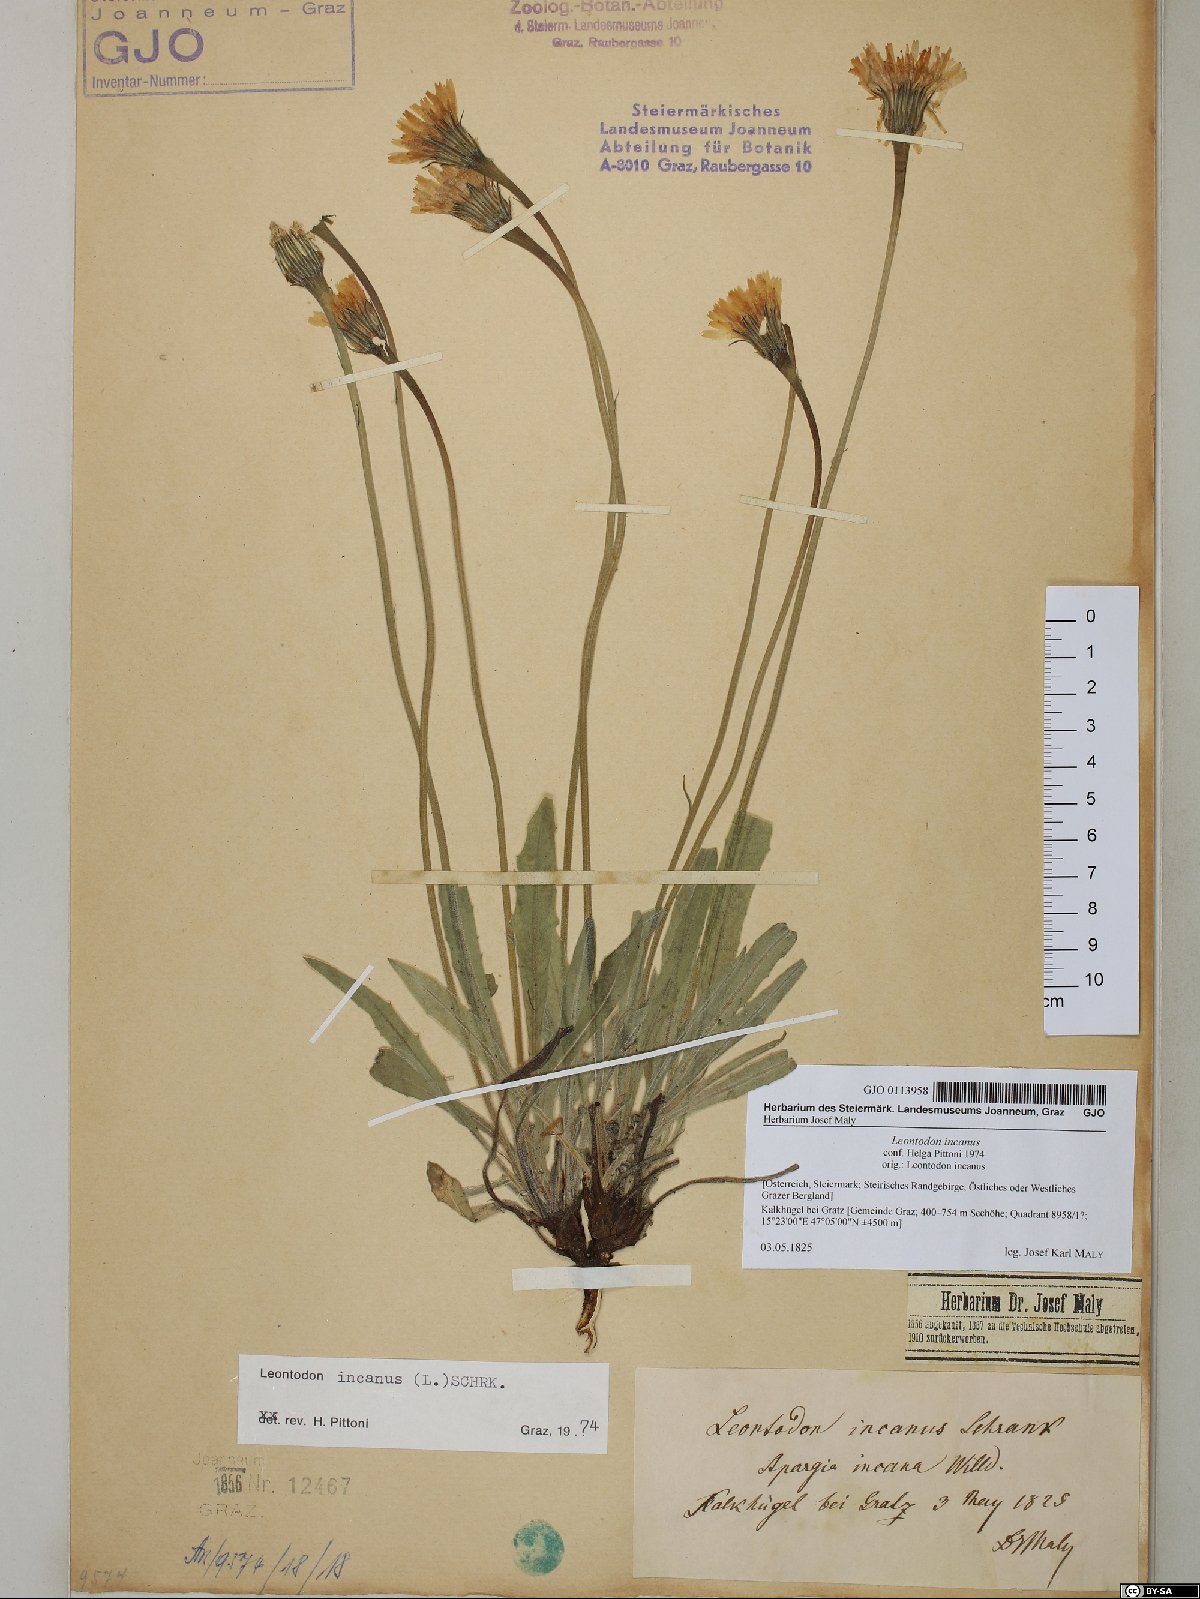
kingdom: Plantae
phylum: Tracheophyta
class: Magnoliopsida
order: Asterales
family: Asteraceae
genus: Leontodon
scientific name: Leontodon incanus
